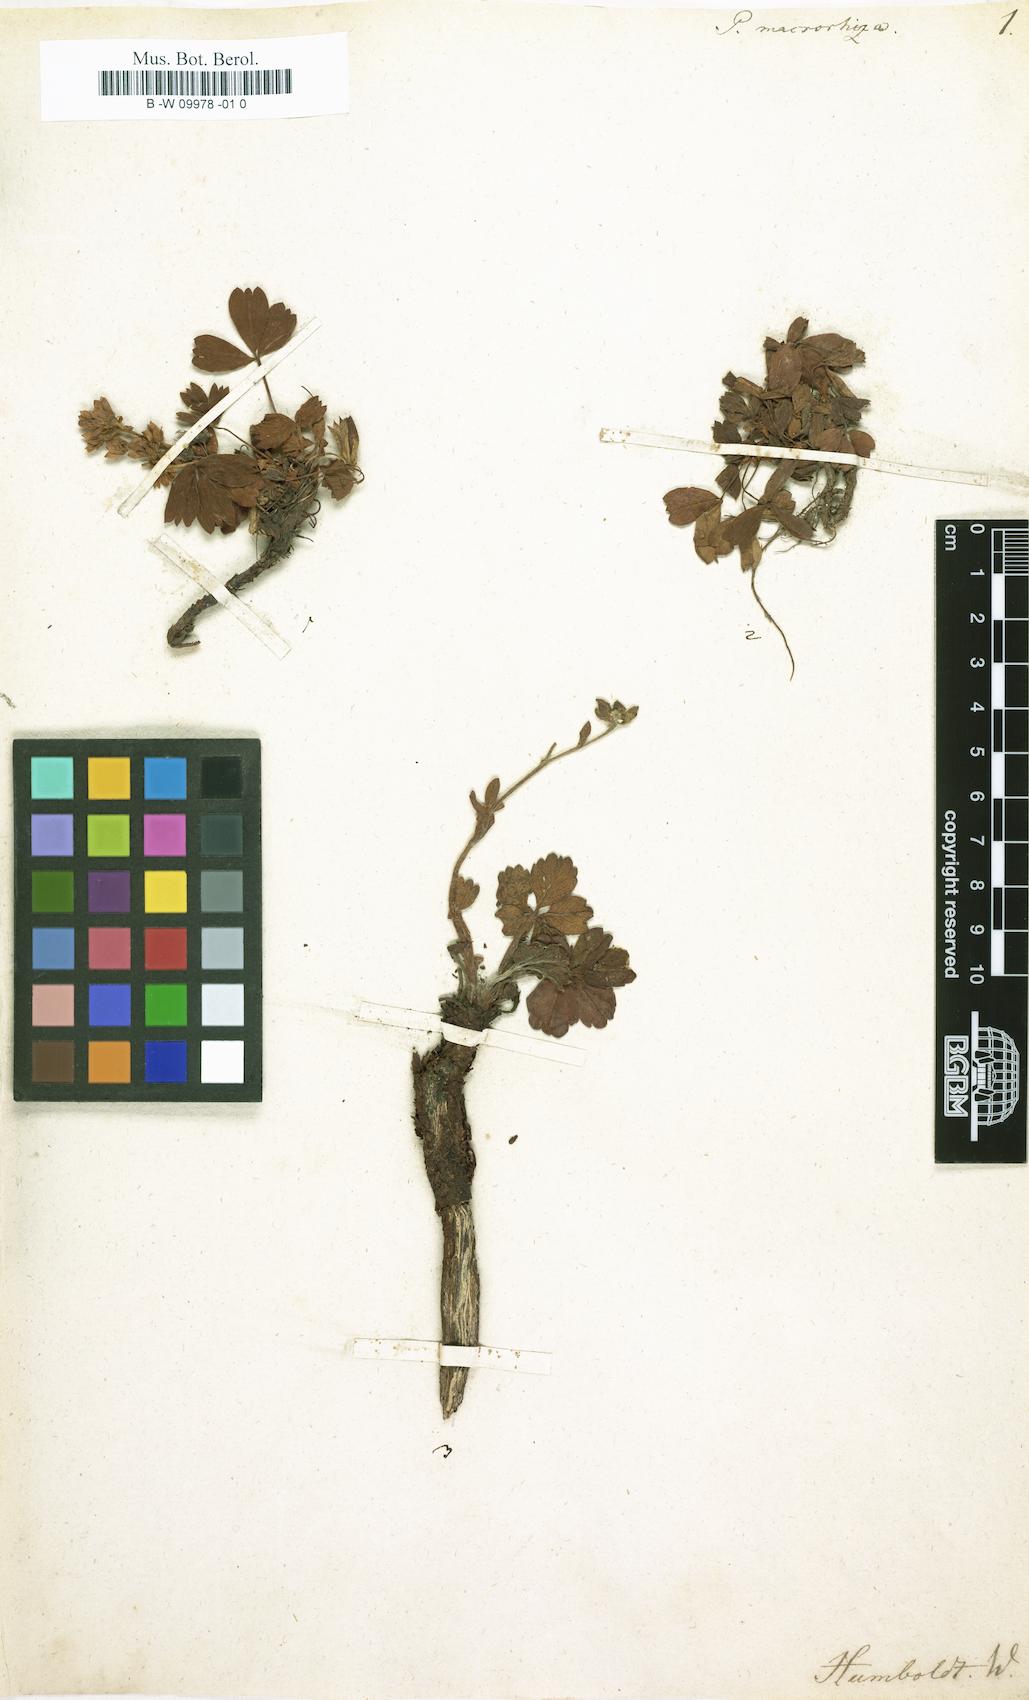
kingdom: Plantae
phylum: Tracheophyta
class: Magnoliopsida
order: Rosales
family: Rosaceae
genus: Potentilla
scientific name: Potentilla macrorrhiza
